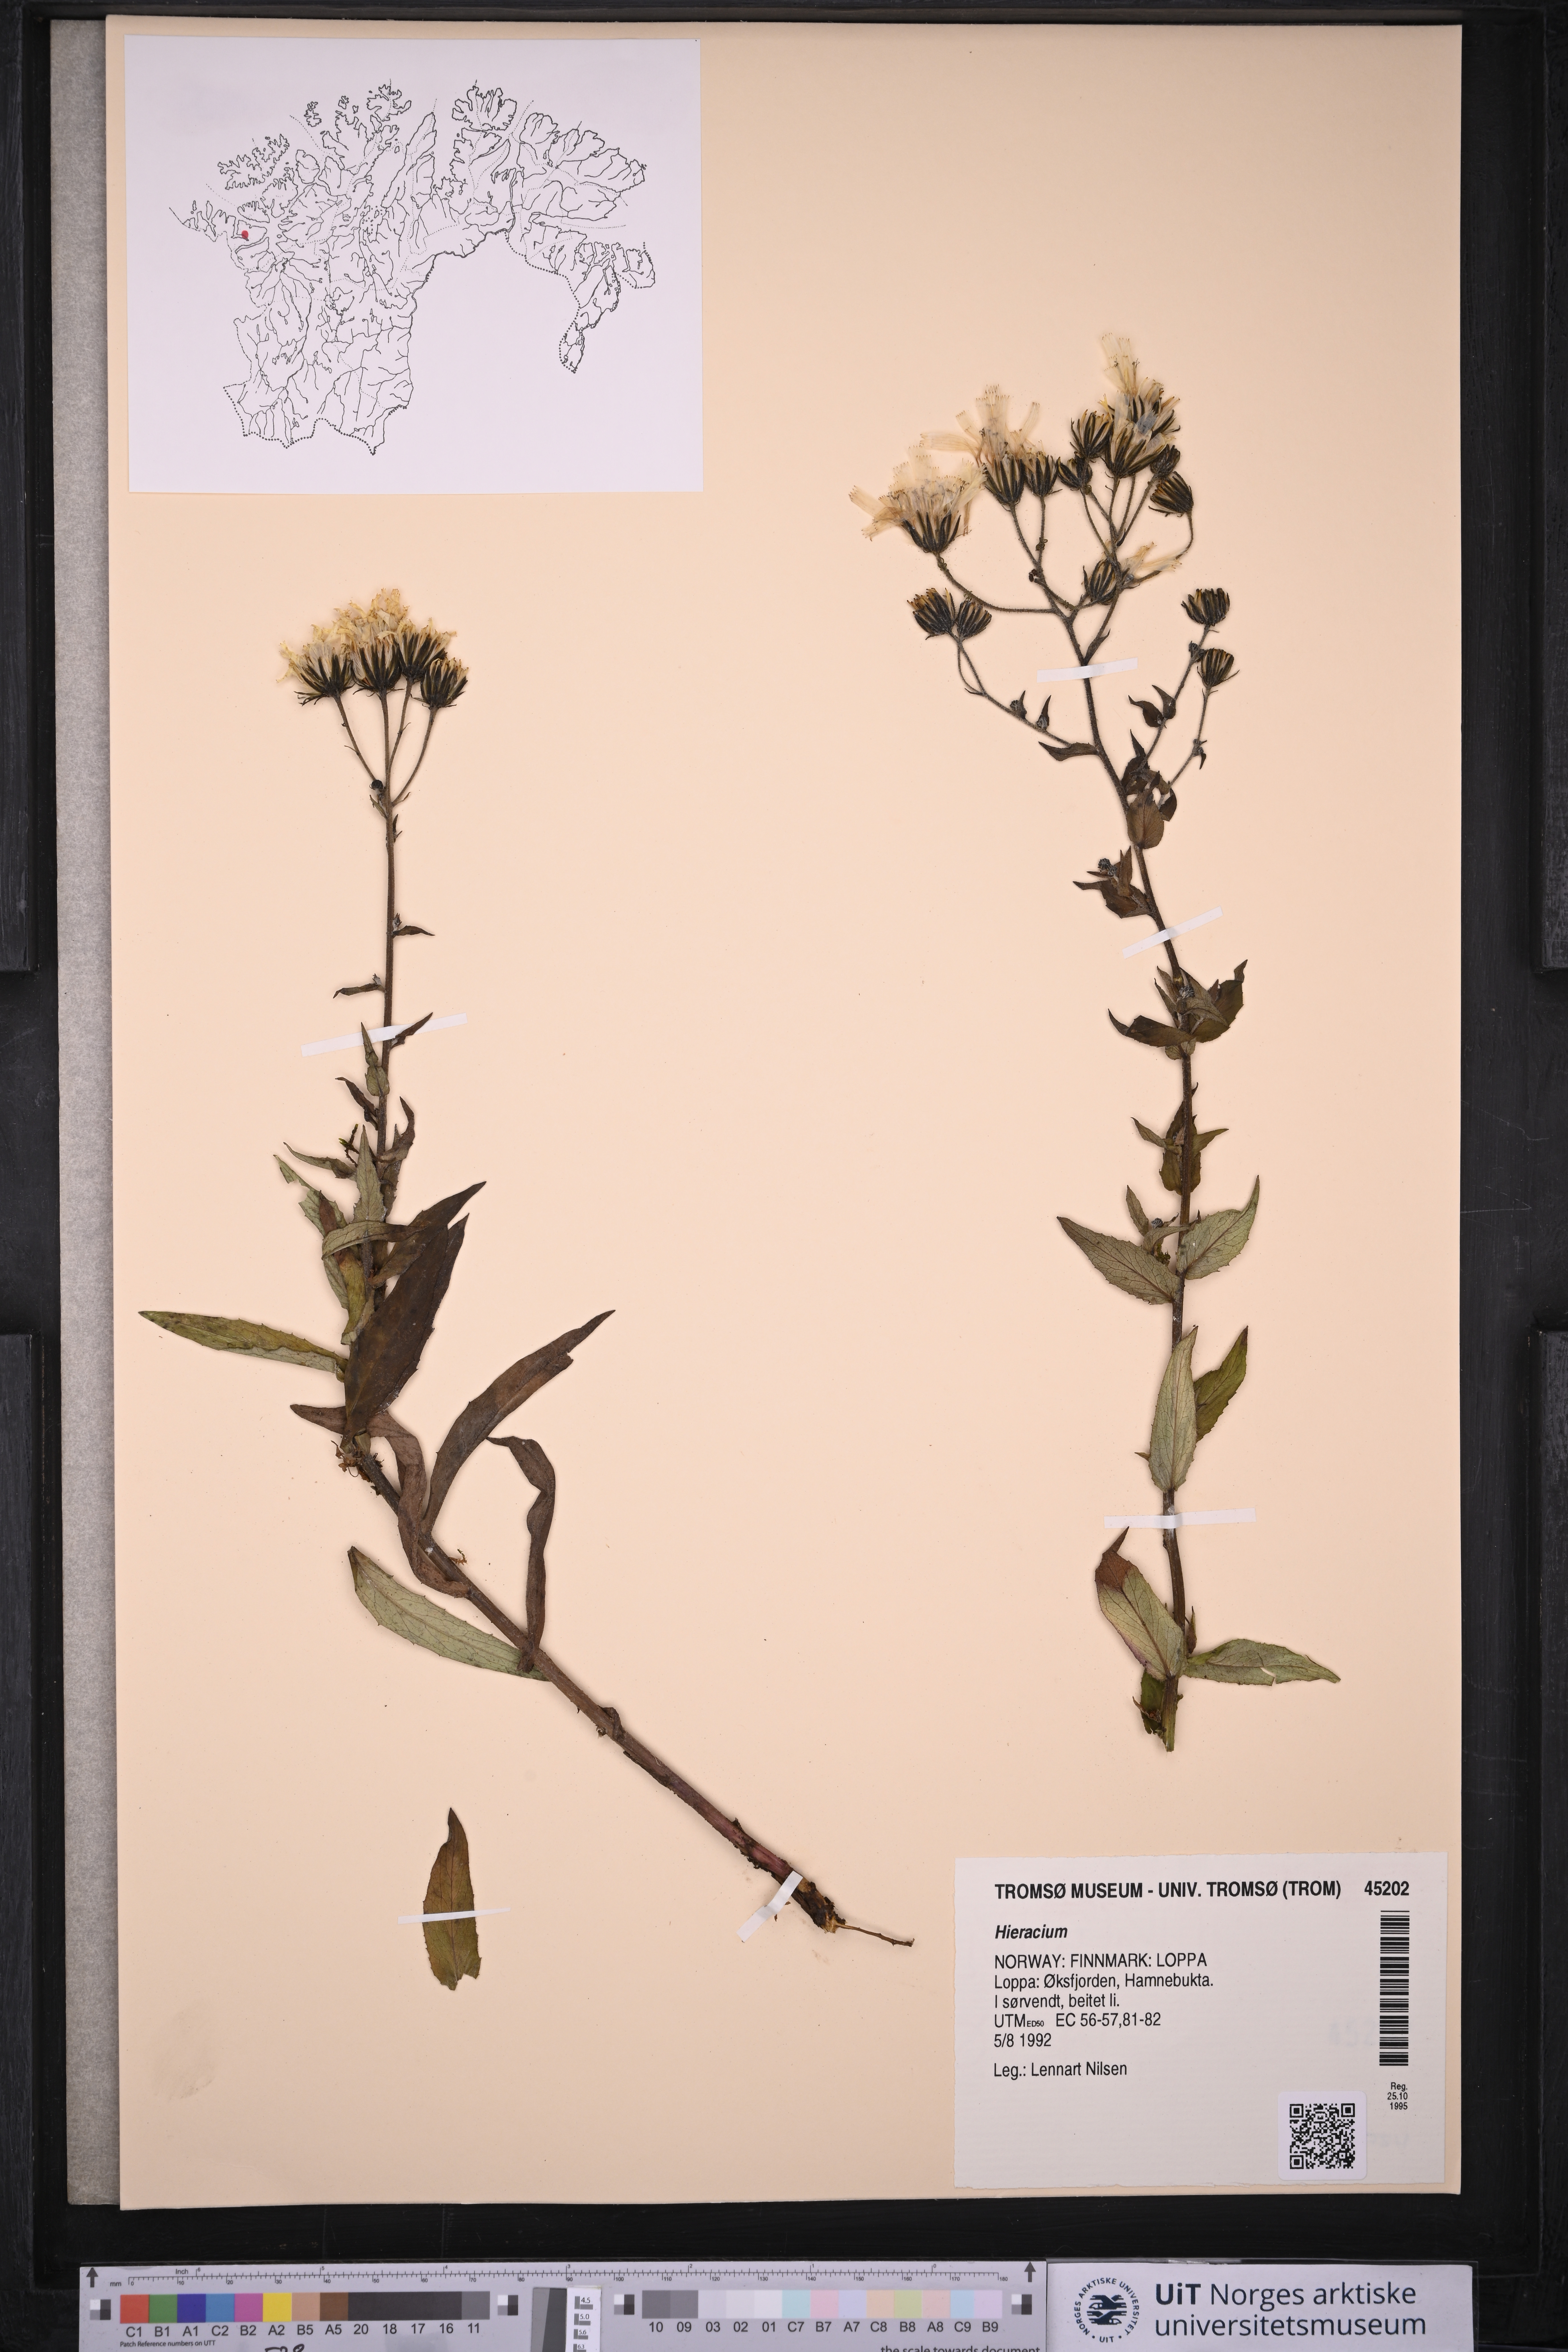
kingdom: Plantae
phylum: Tracheophyta
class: Magnoliopsida
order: Asterales
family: Asteraceae
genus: Hieracium
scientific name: Hieracium
